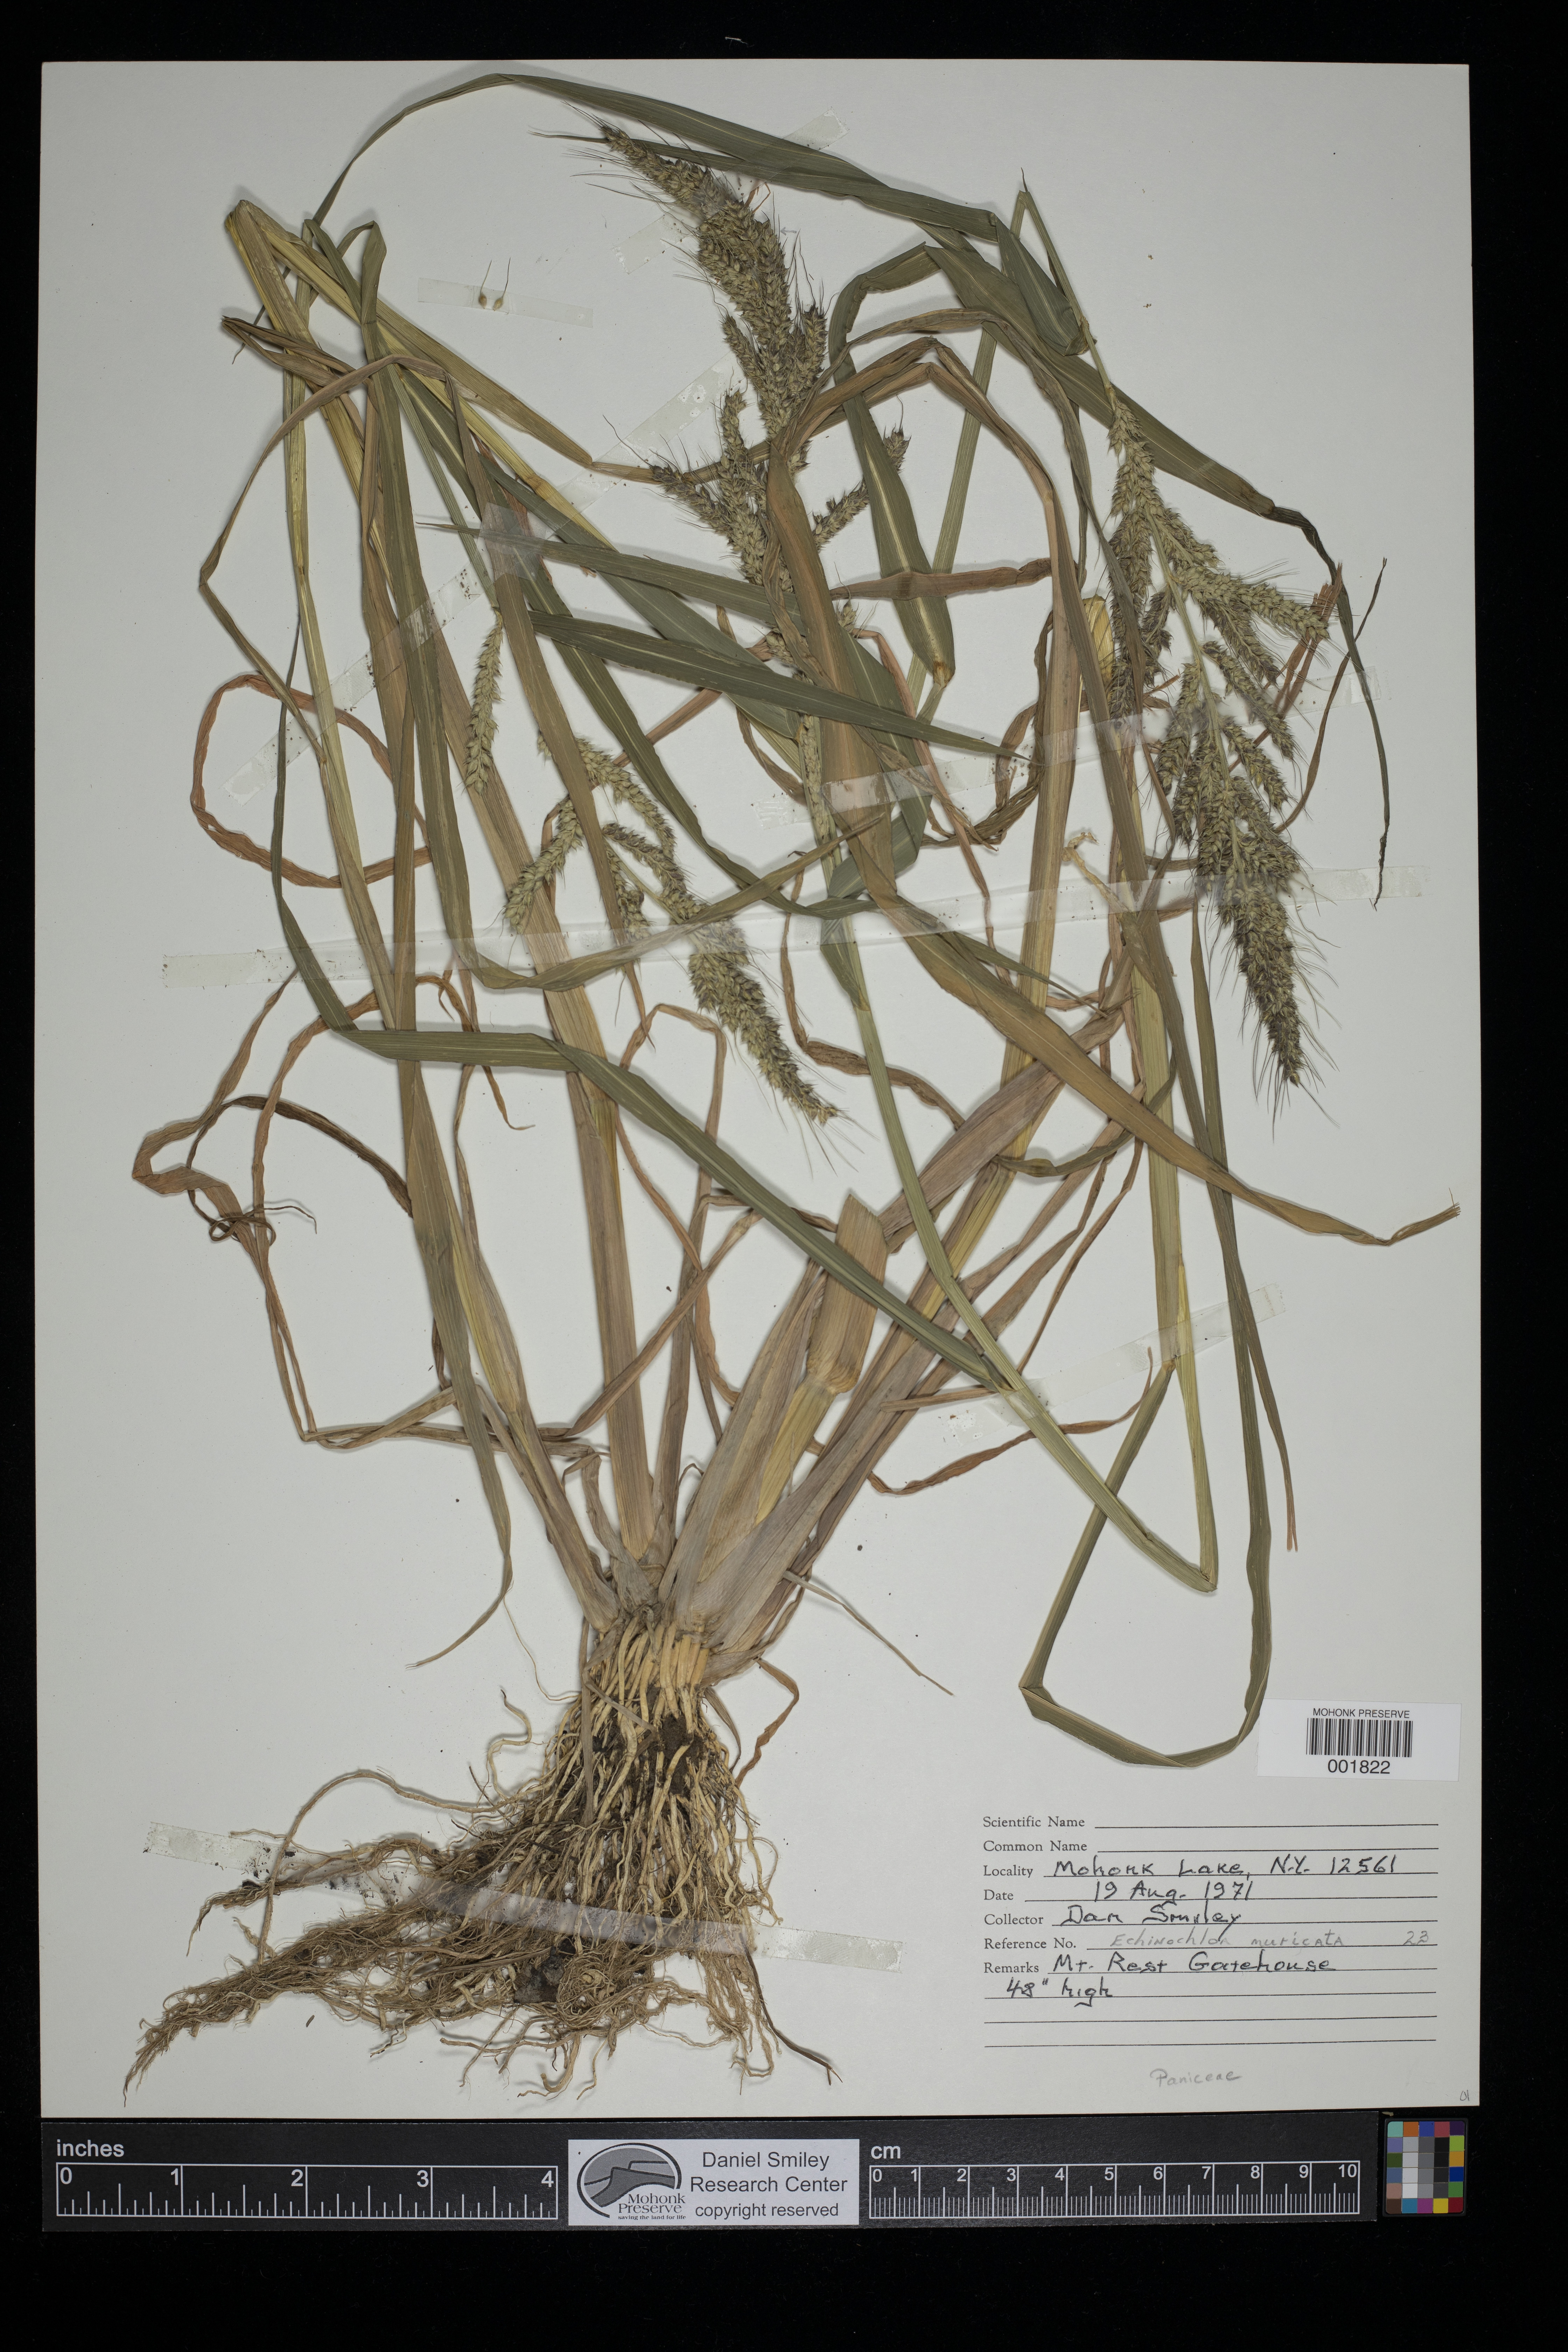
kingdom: Plantae
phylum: Tracheophyta
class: Liliopsida
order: Poales
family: Poaceae
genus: Echinochloa
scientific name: Echinochloa muricata
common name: American barnyard grass
